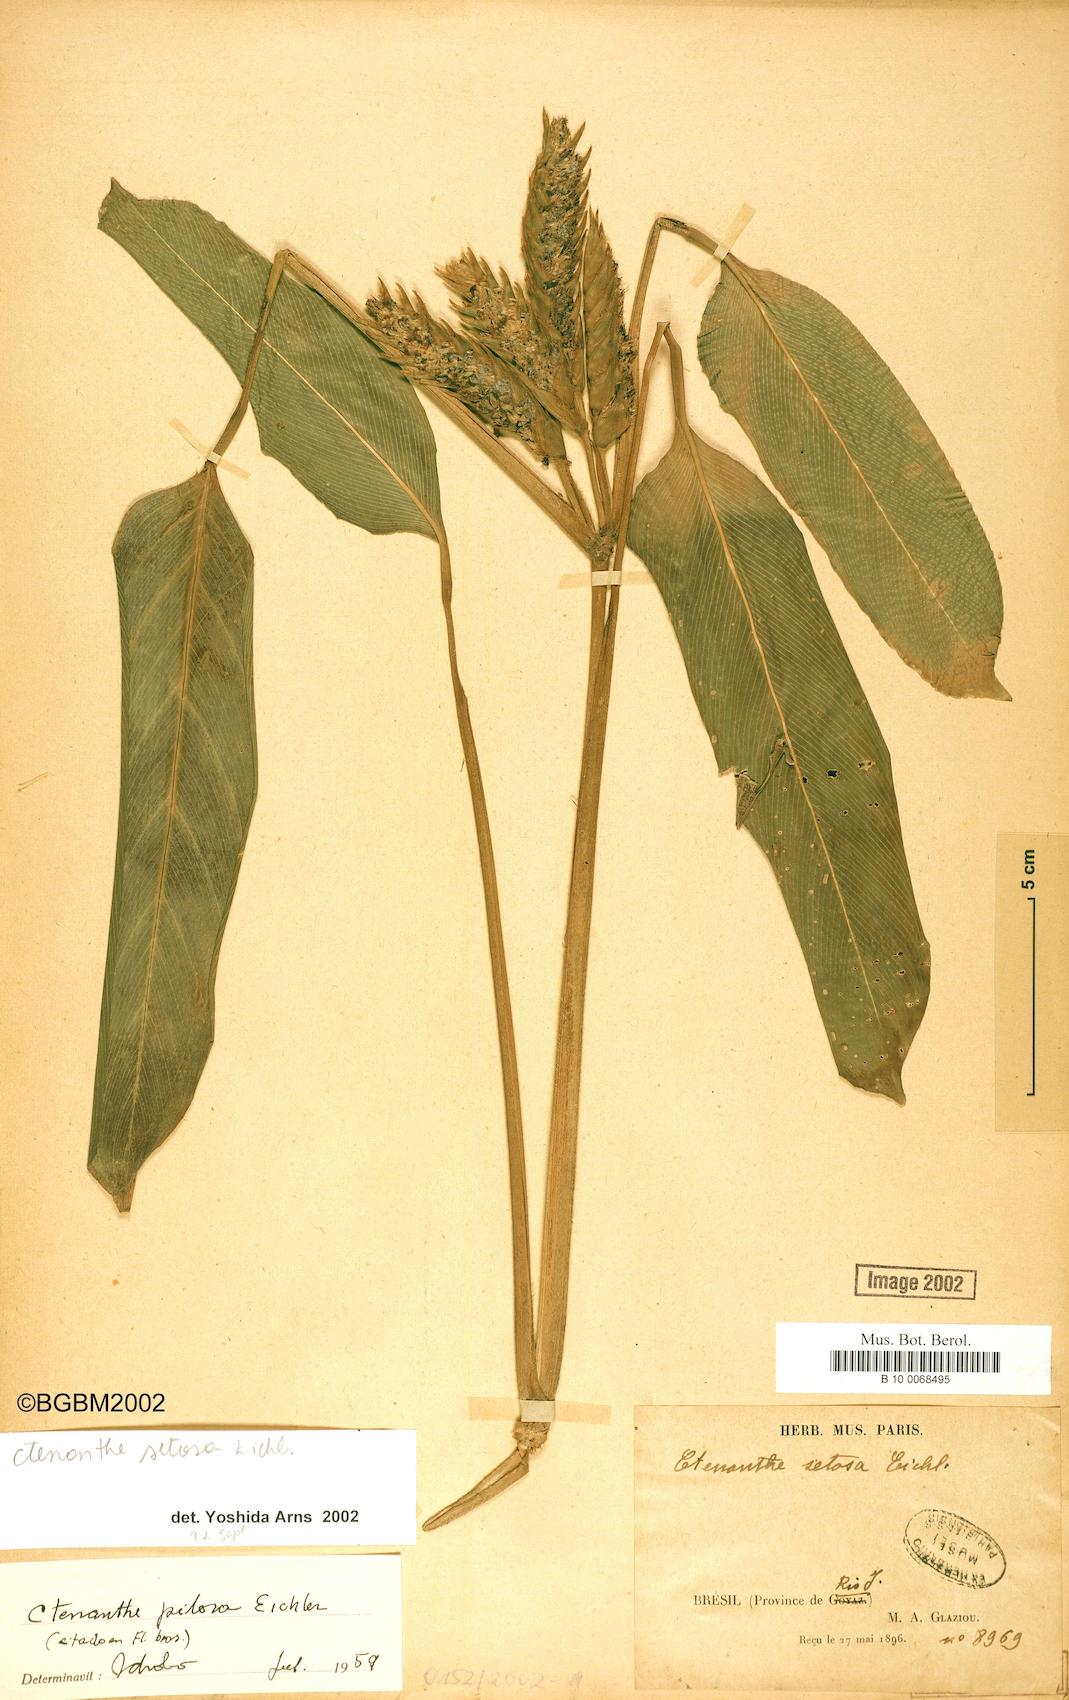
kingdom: Plantae
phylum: Tracheophyta
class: Liliopsida
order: Zingiberales
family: Marantaceae
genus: Ctenanthe
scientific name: Ctenanthe setosa
